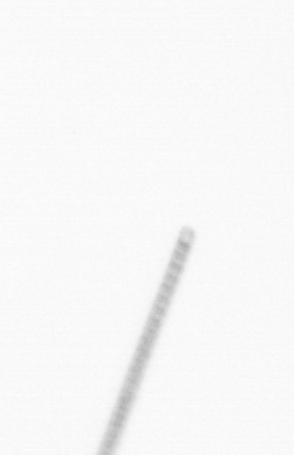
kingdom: Chromista
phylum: Ochrophyta
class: Bacillariophyceae
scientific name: Bacillariophyceae
